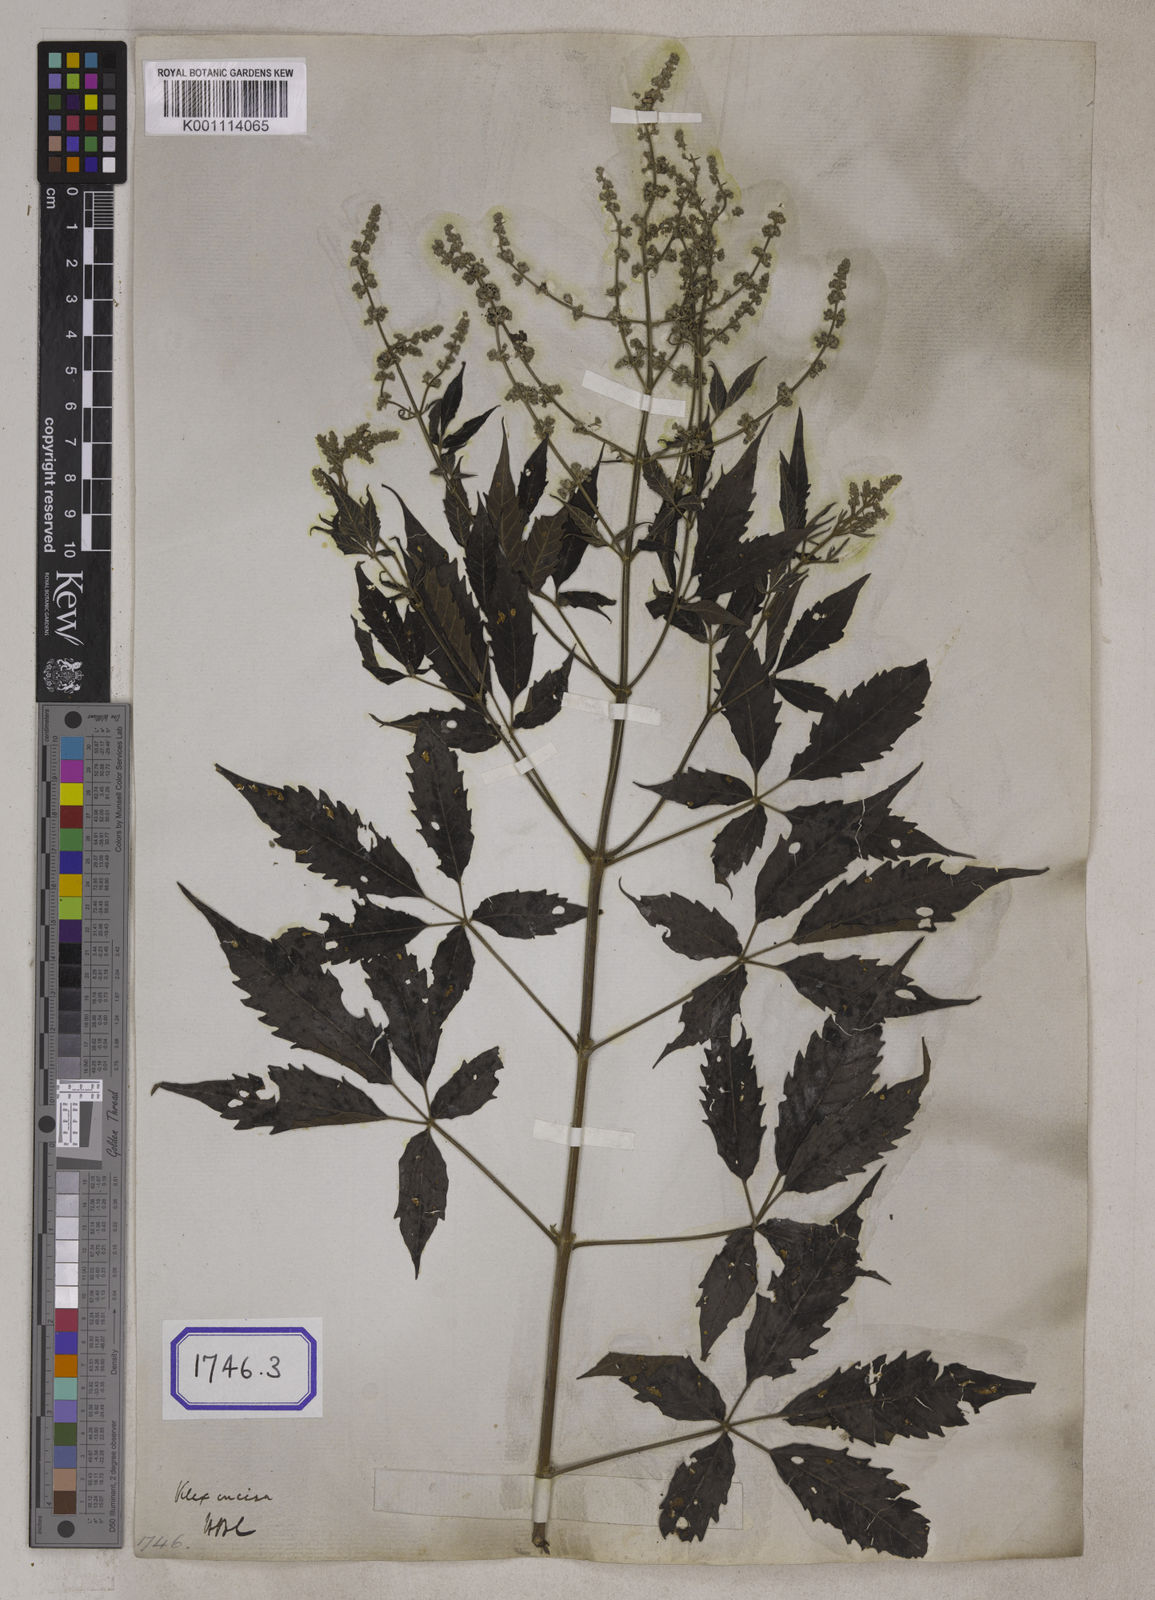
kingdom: Plantae
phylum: Tracheophyta
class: Magnoliopsida
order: Lamiales
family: Lamiaceae
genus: Vitex
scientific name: Vitex negundo
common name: Chinese chastetree
